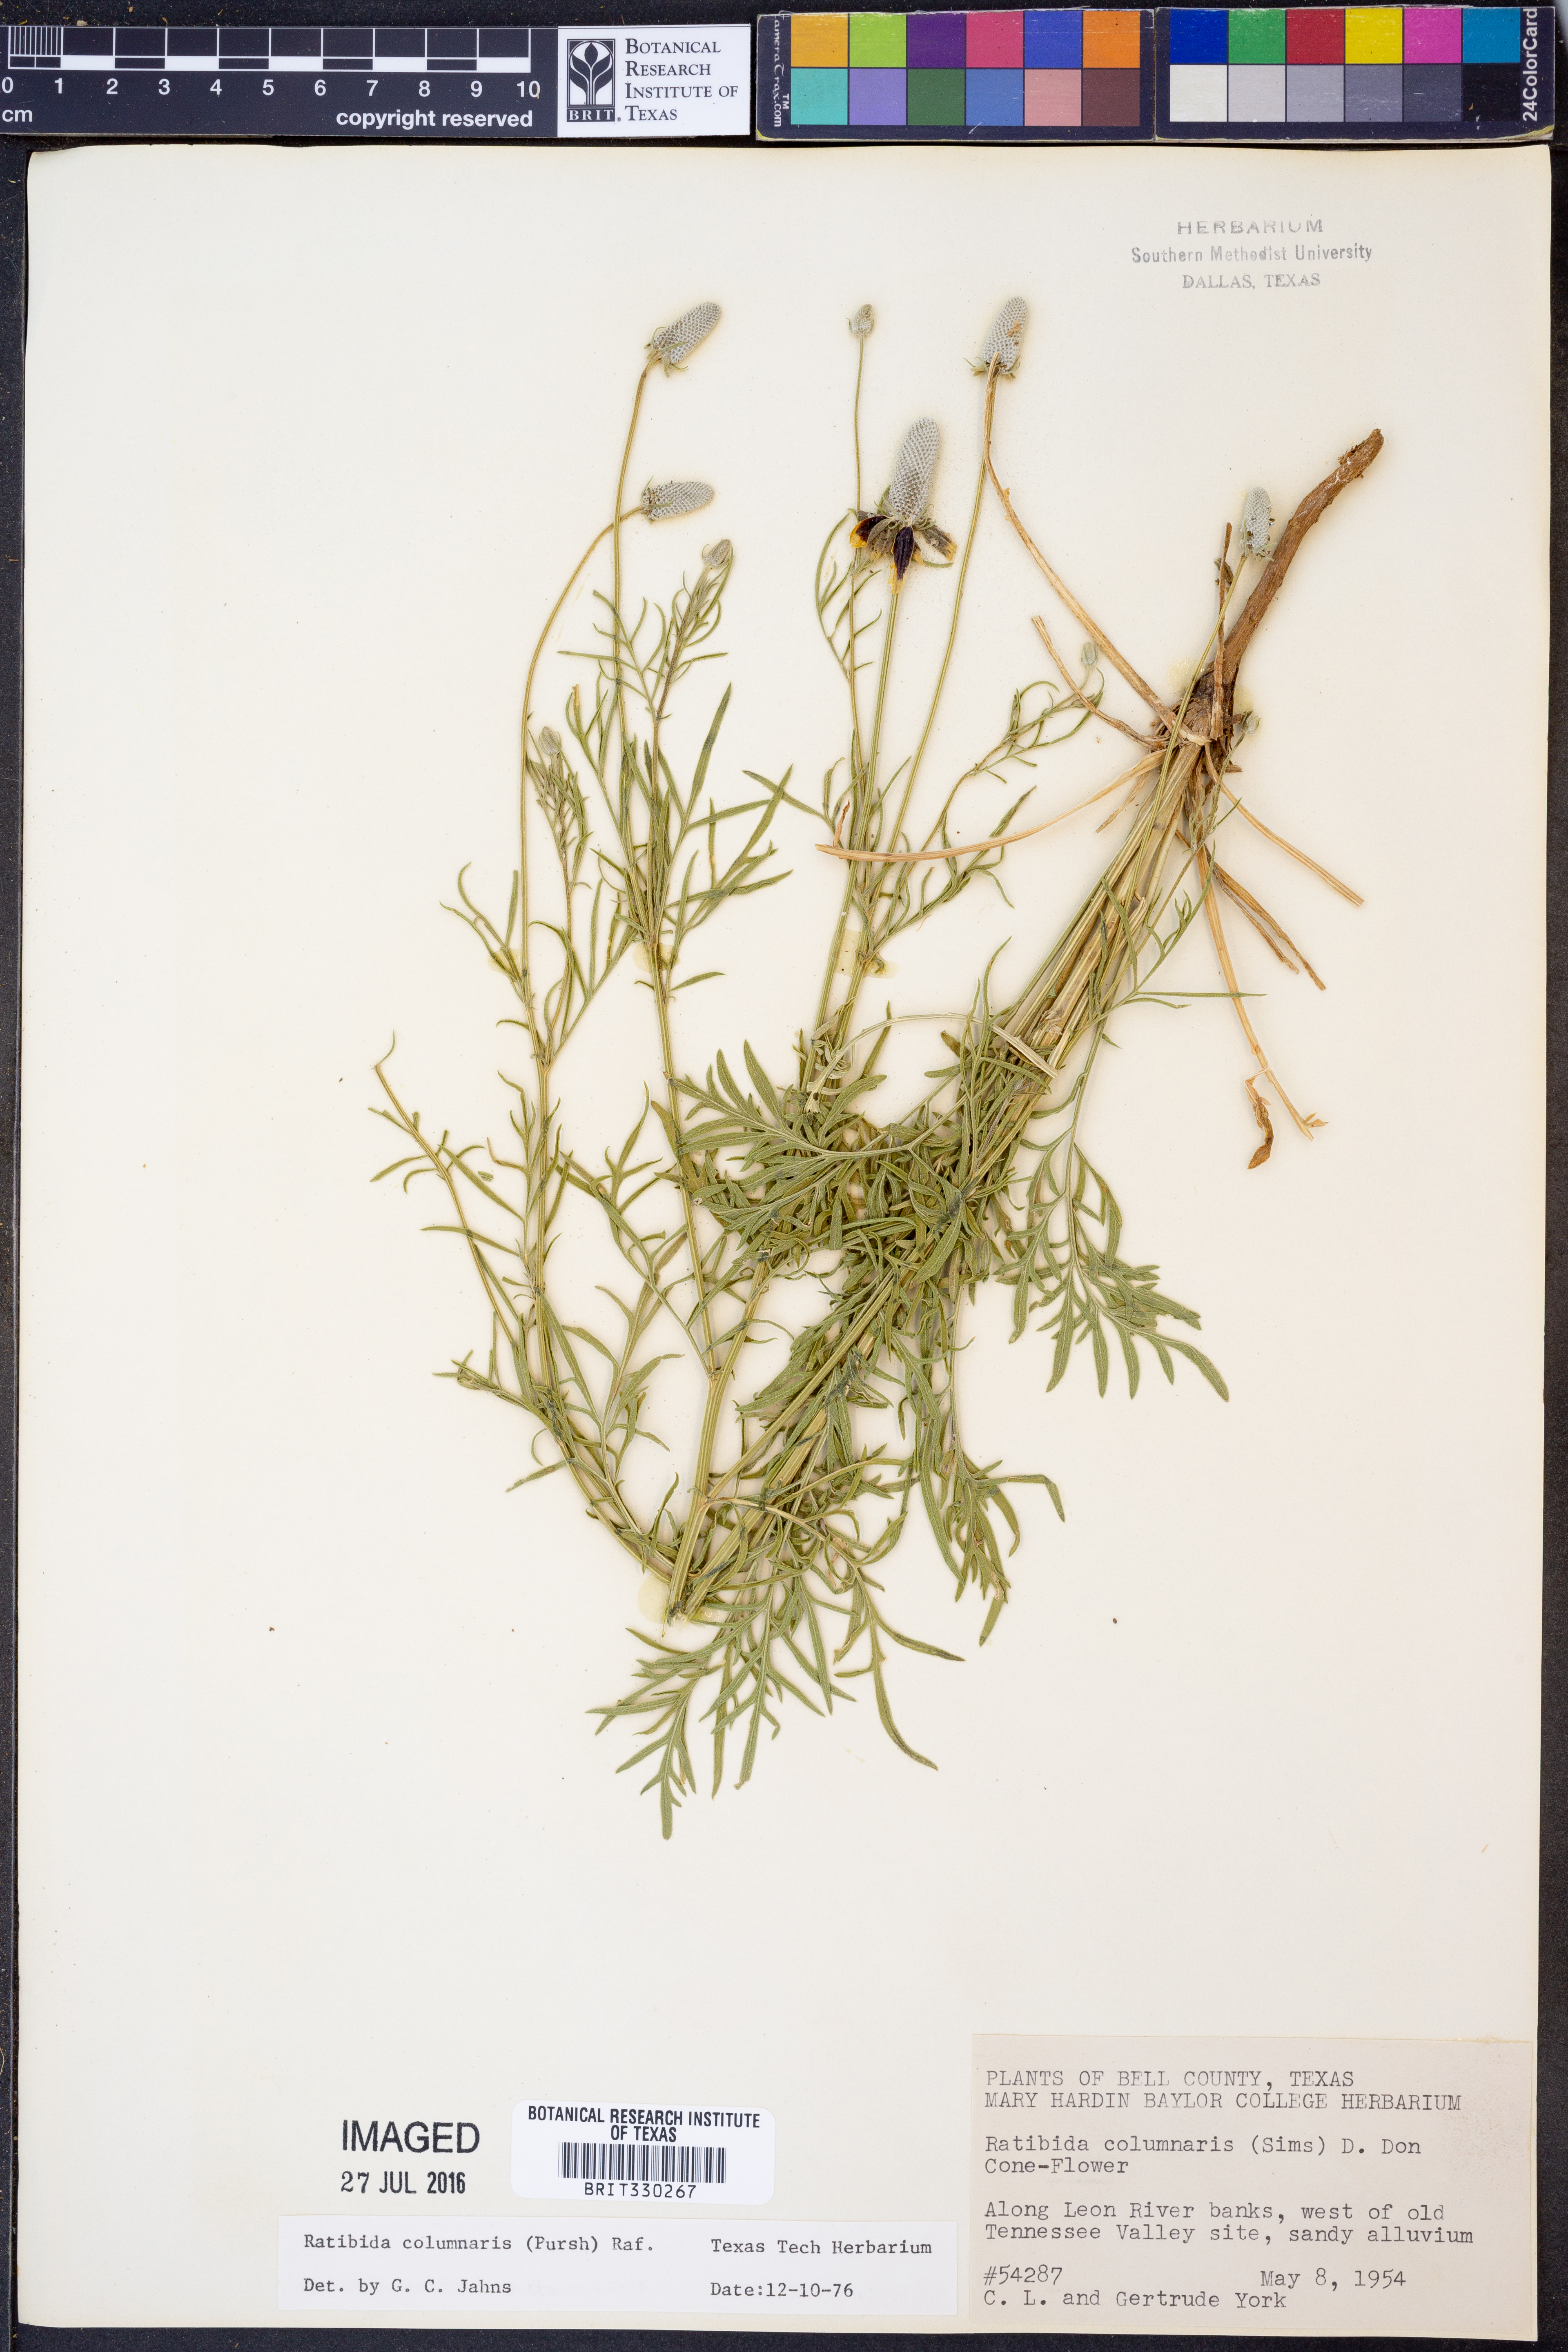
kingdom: Plantae
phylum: Tracheophyta
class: Magnoliopsida
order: Asterales
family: Asteraceae
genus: Ratibida
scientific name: Ratibida columnifera
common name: Prairie coneflower
